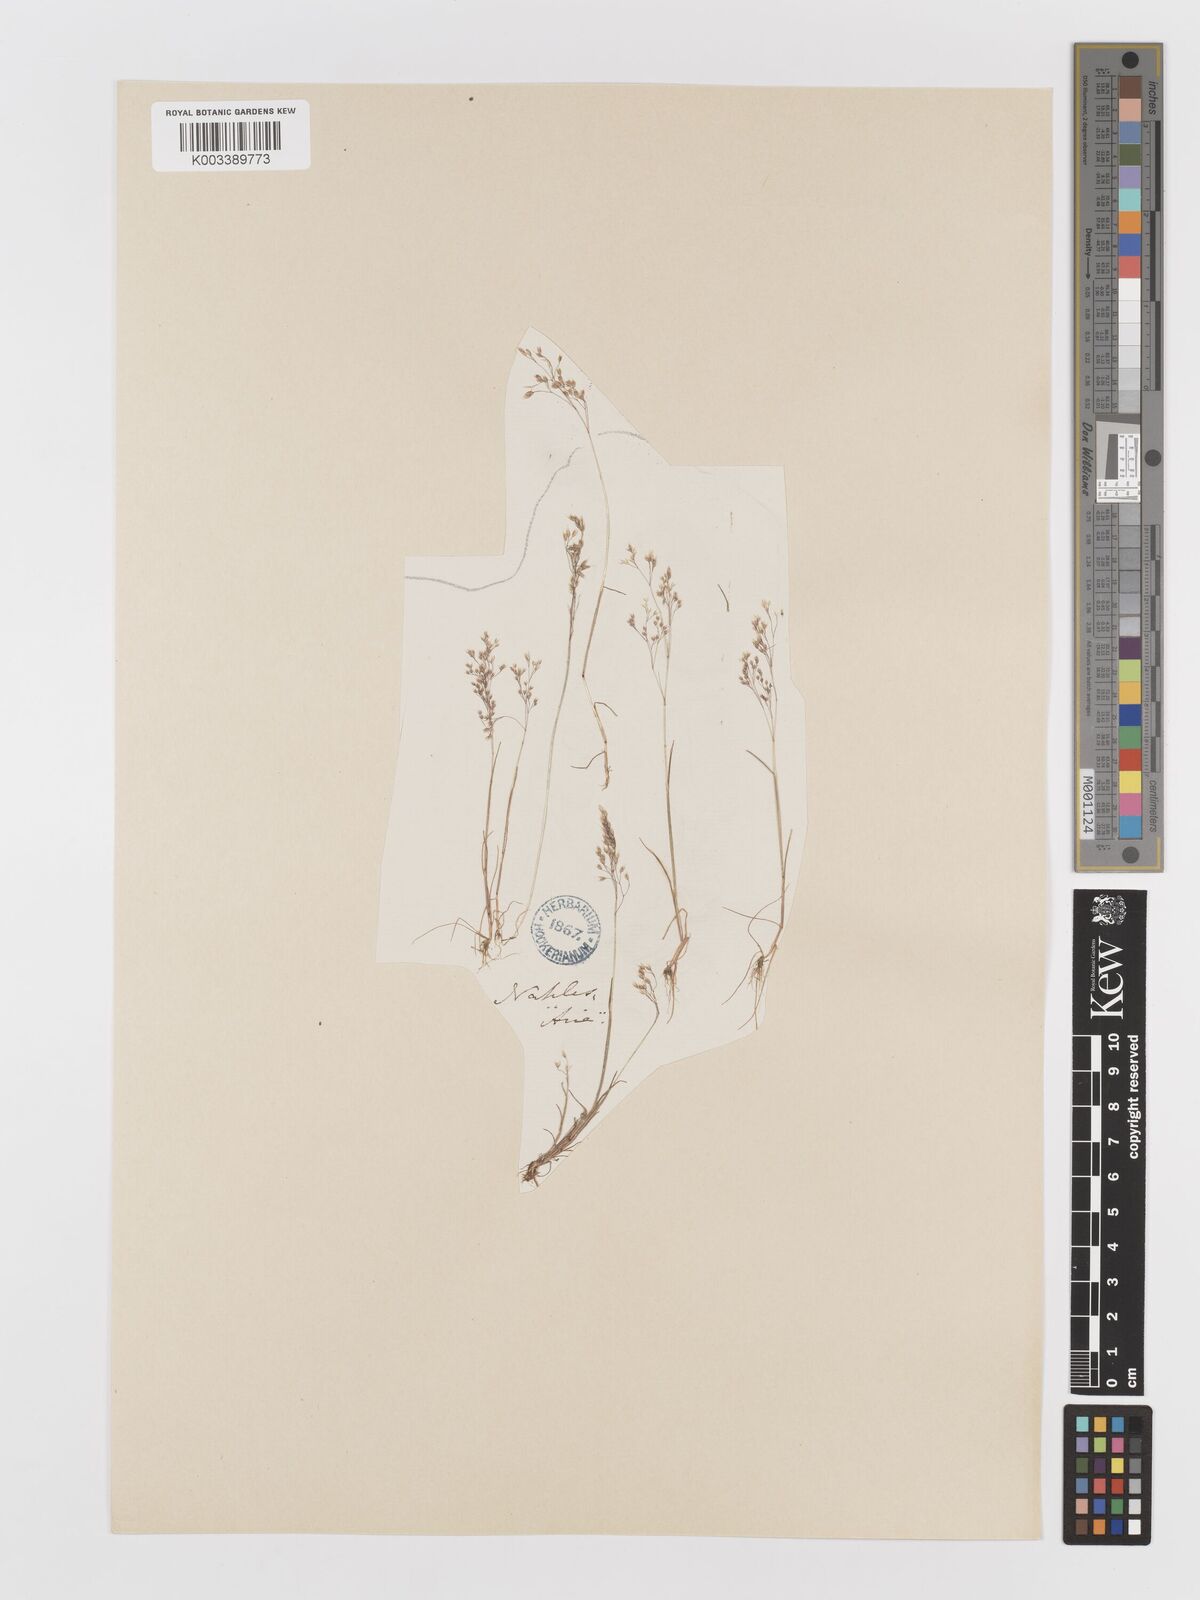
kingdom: Plantae
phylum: Tracheophyta
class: Liliopsida
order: Poales
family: Poaceae
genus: Aira
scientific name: Aira cupaniana
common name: Silver hairgrass
